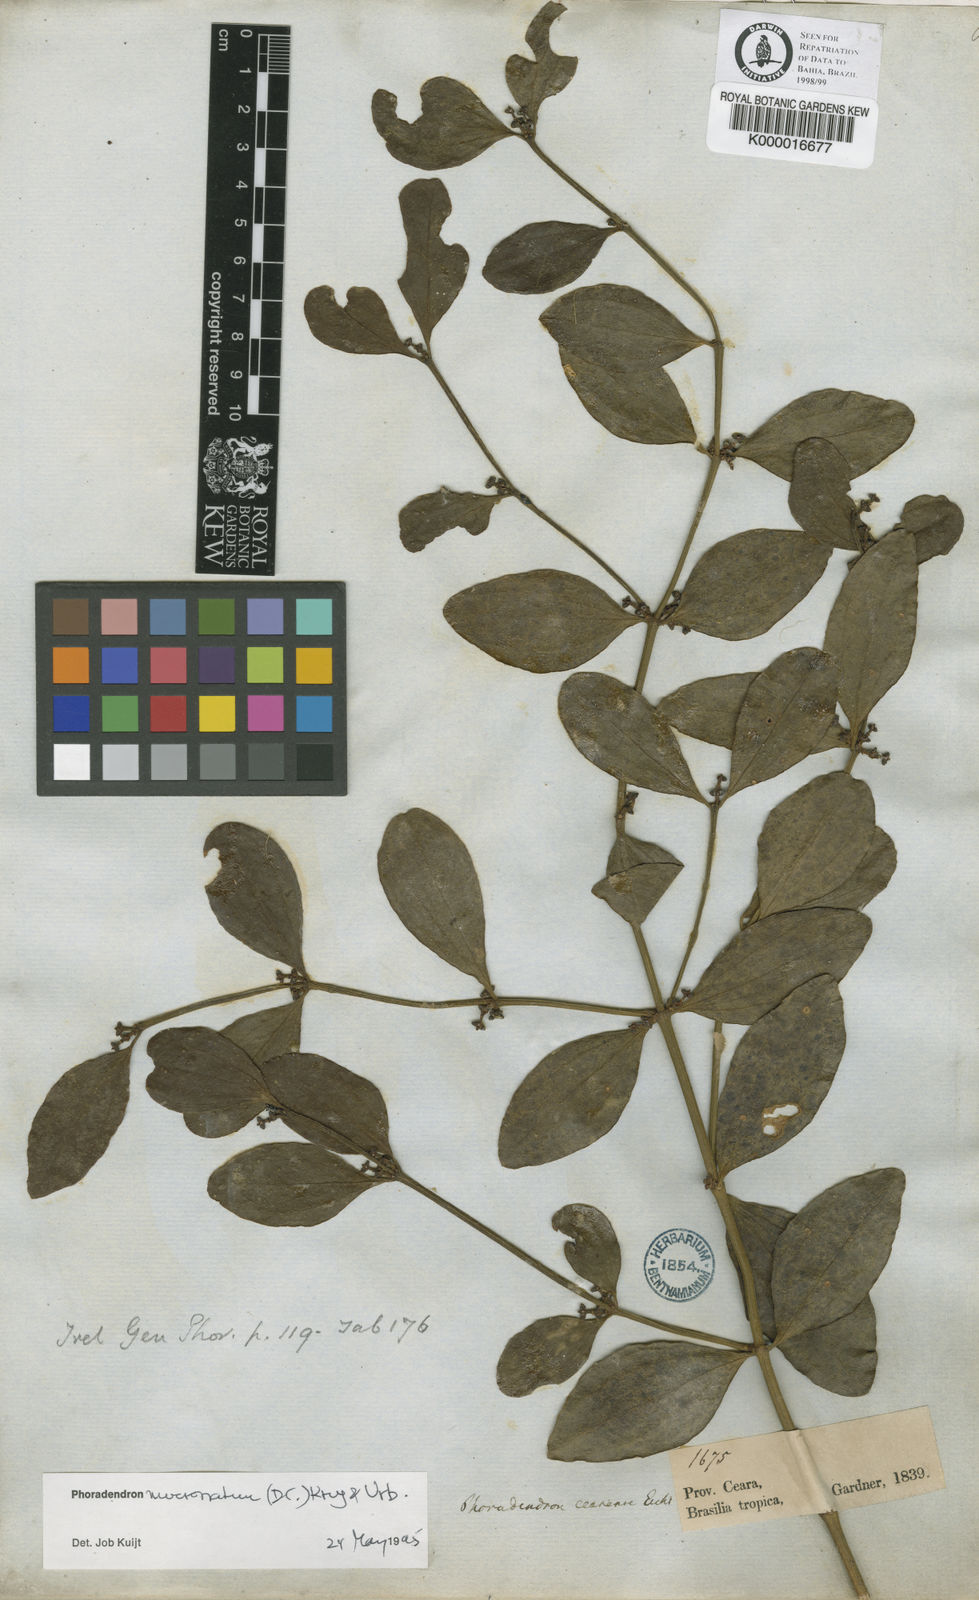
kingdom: Plantae
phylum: Tracheophyta
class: Magnoliopsida
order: Santalales
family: Viscaceae
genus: Phoradendron
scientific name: Phoradendron mucronatum
